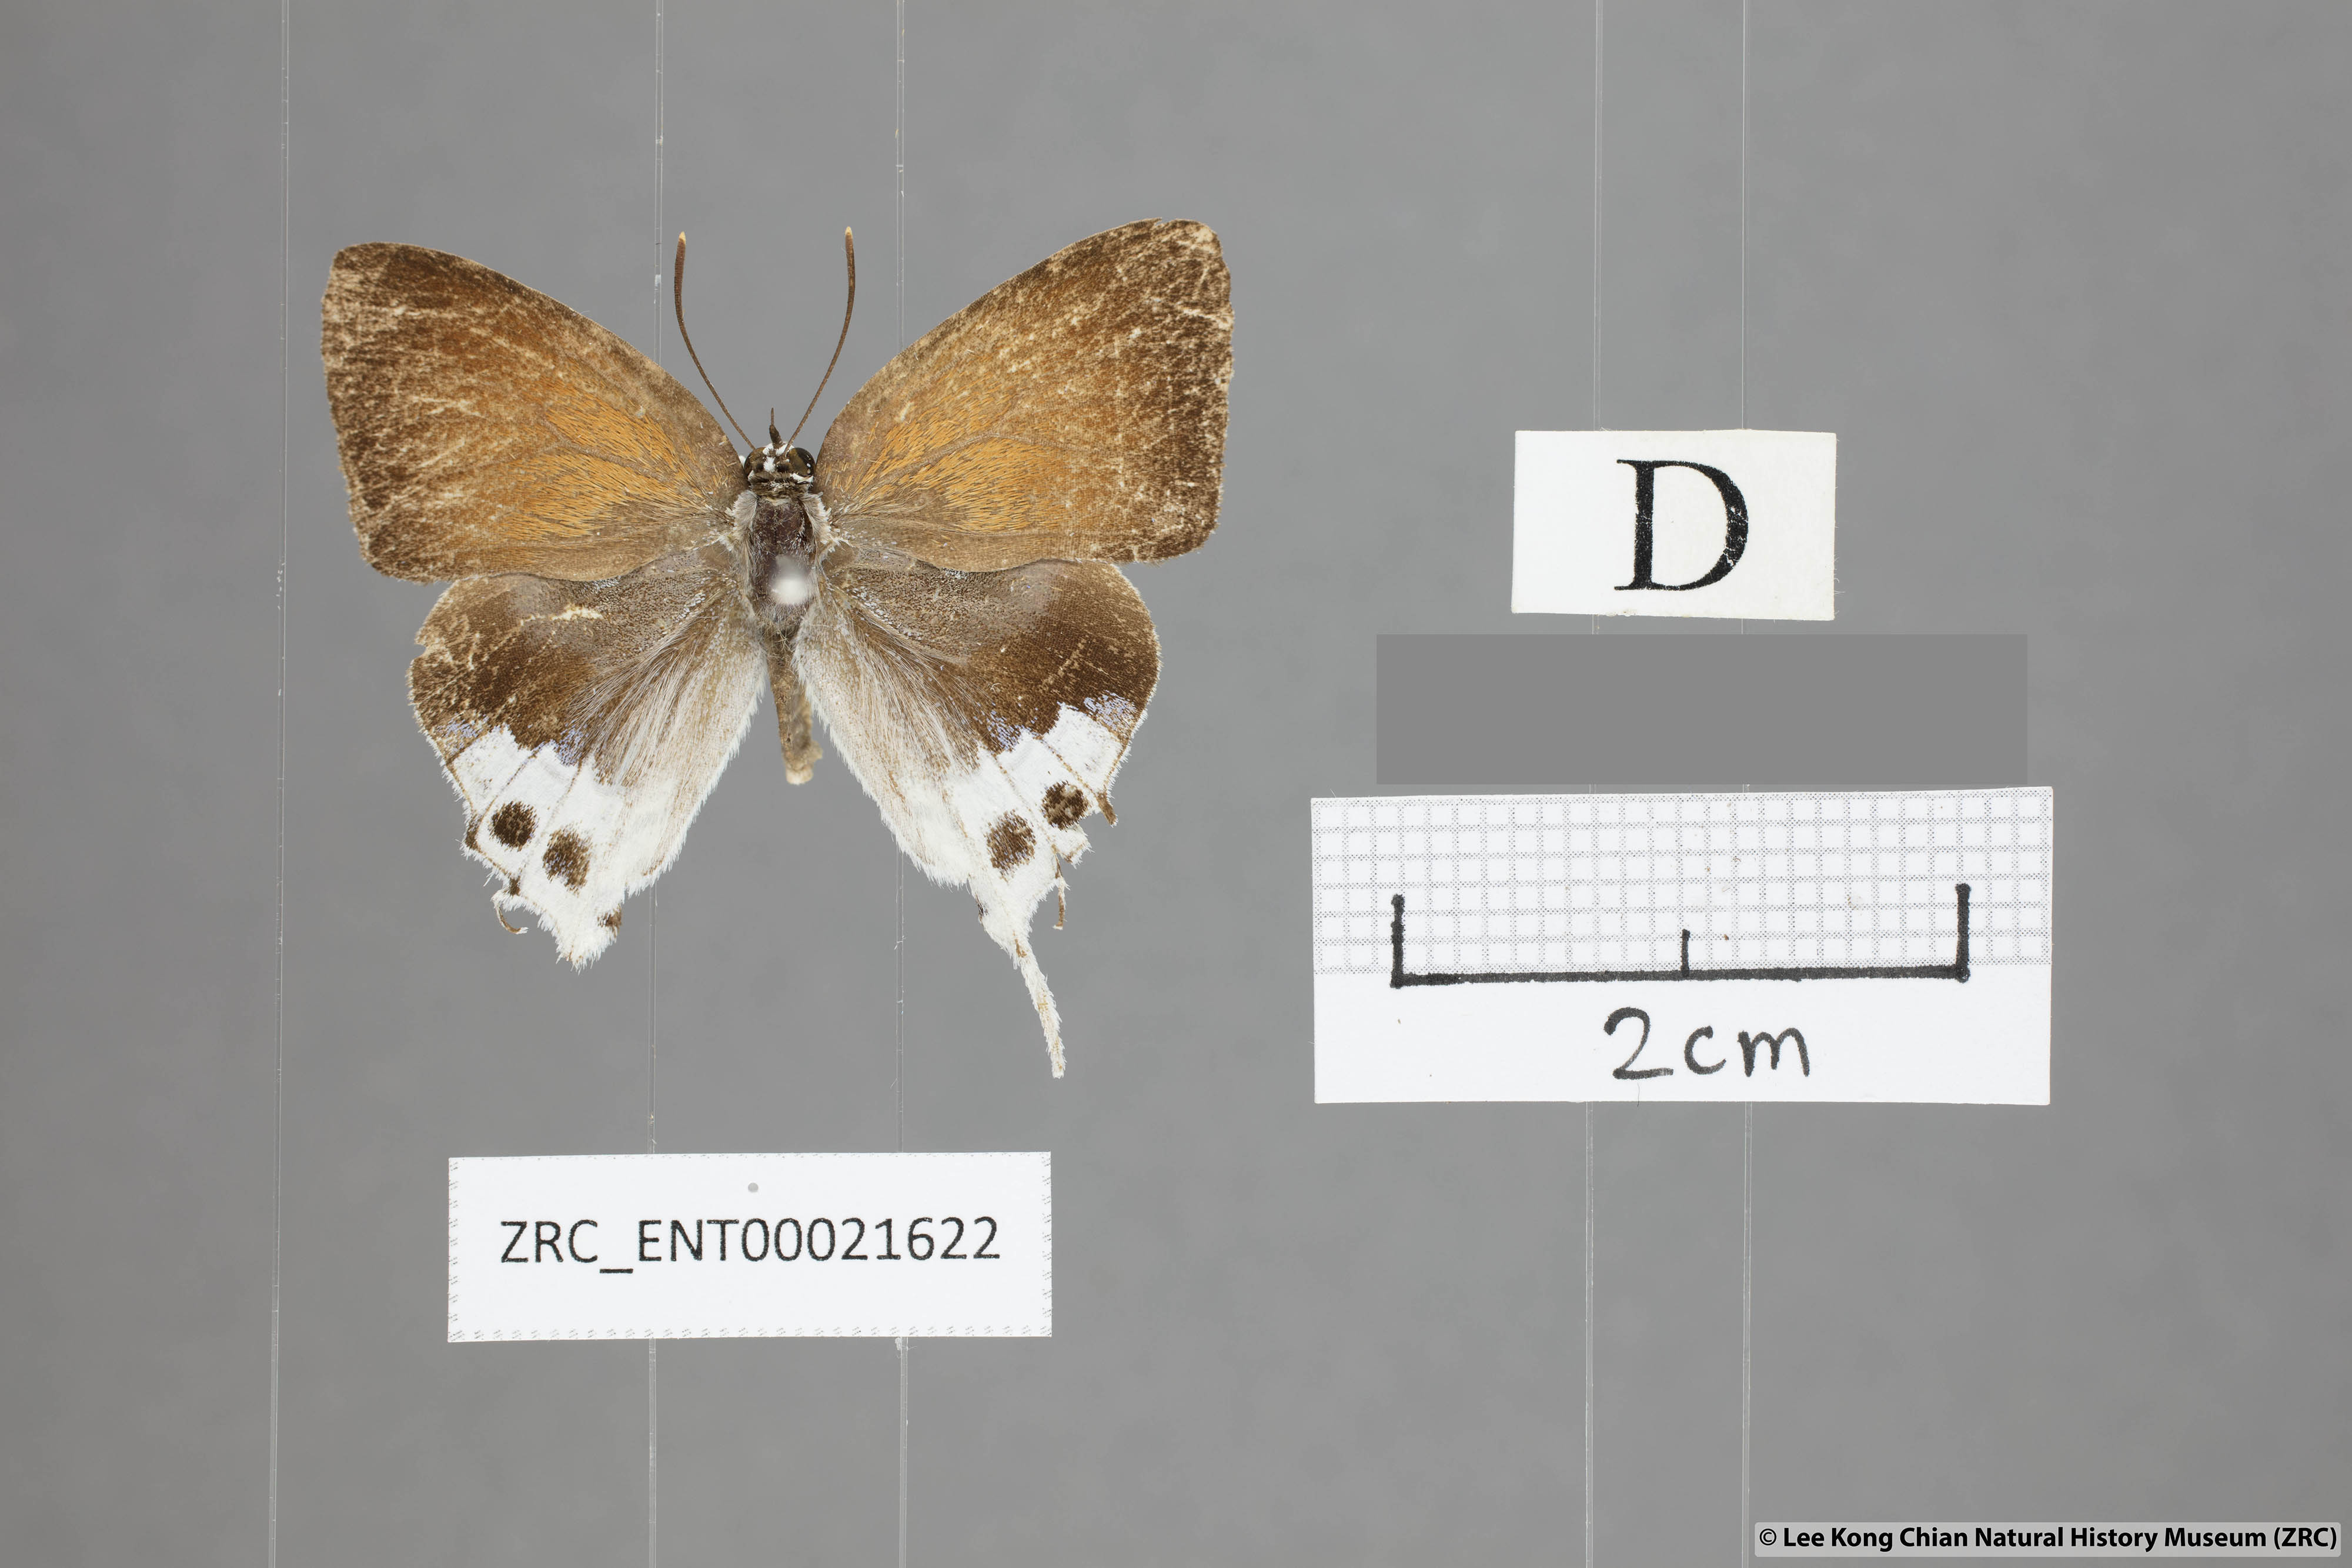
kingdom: Animalia
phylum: Arthropoda
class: Insecta
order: Lepidoptera
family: Lycaenidae
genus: Mantoides
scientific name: Mantoides gama
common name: Distant's imperial
